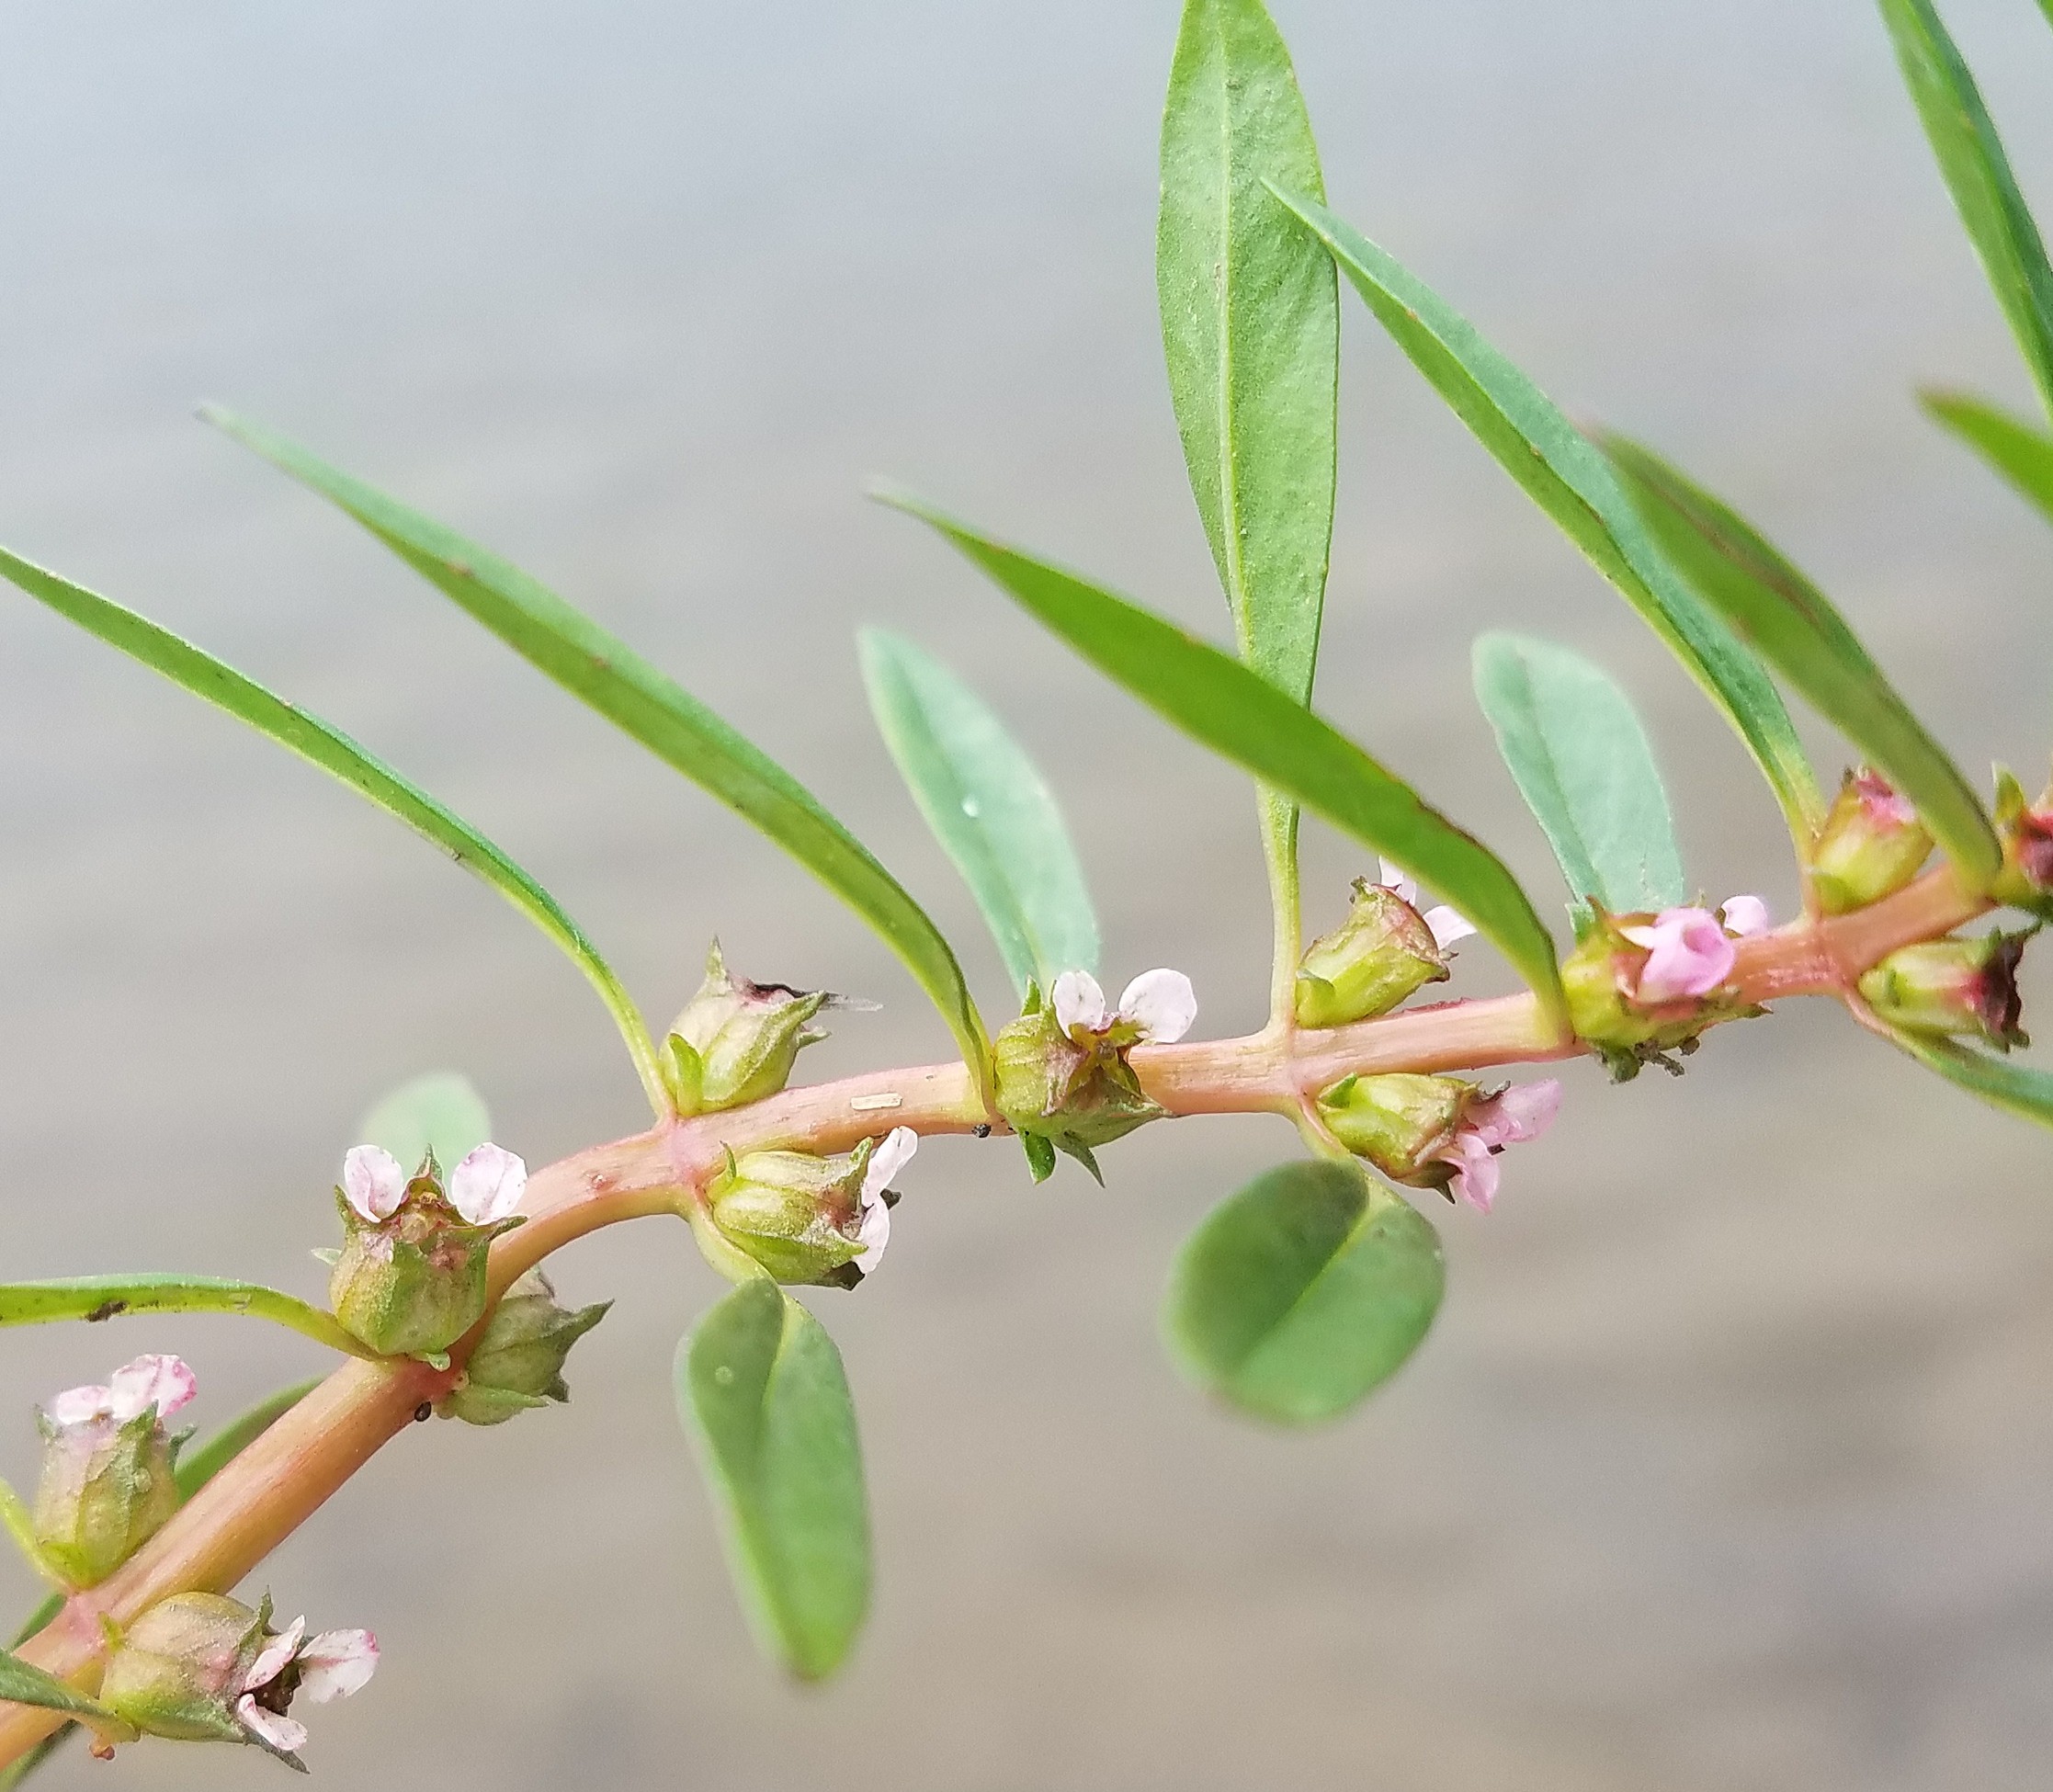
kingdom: Plantae
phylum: Tracheophyta
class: Magnoliopsida
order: Myrtales
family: Lythraceae
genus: Rotala
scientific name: Rotala ramosior
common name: Lowland rotala
